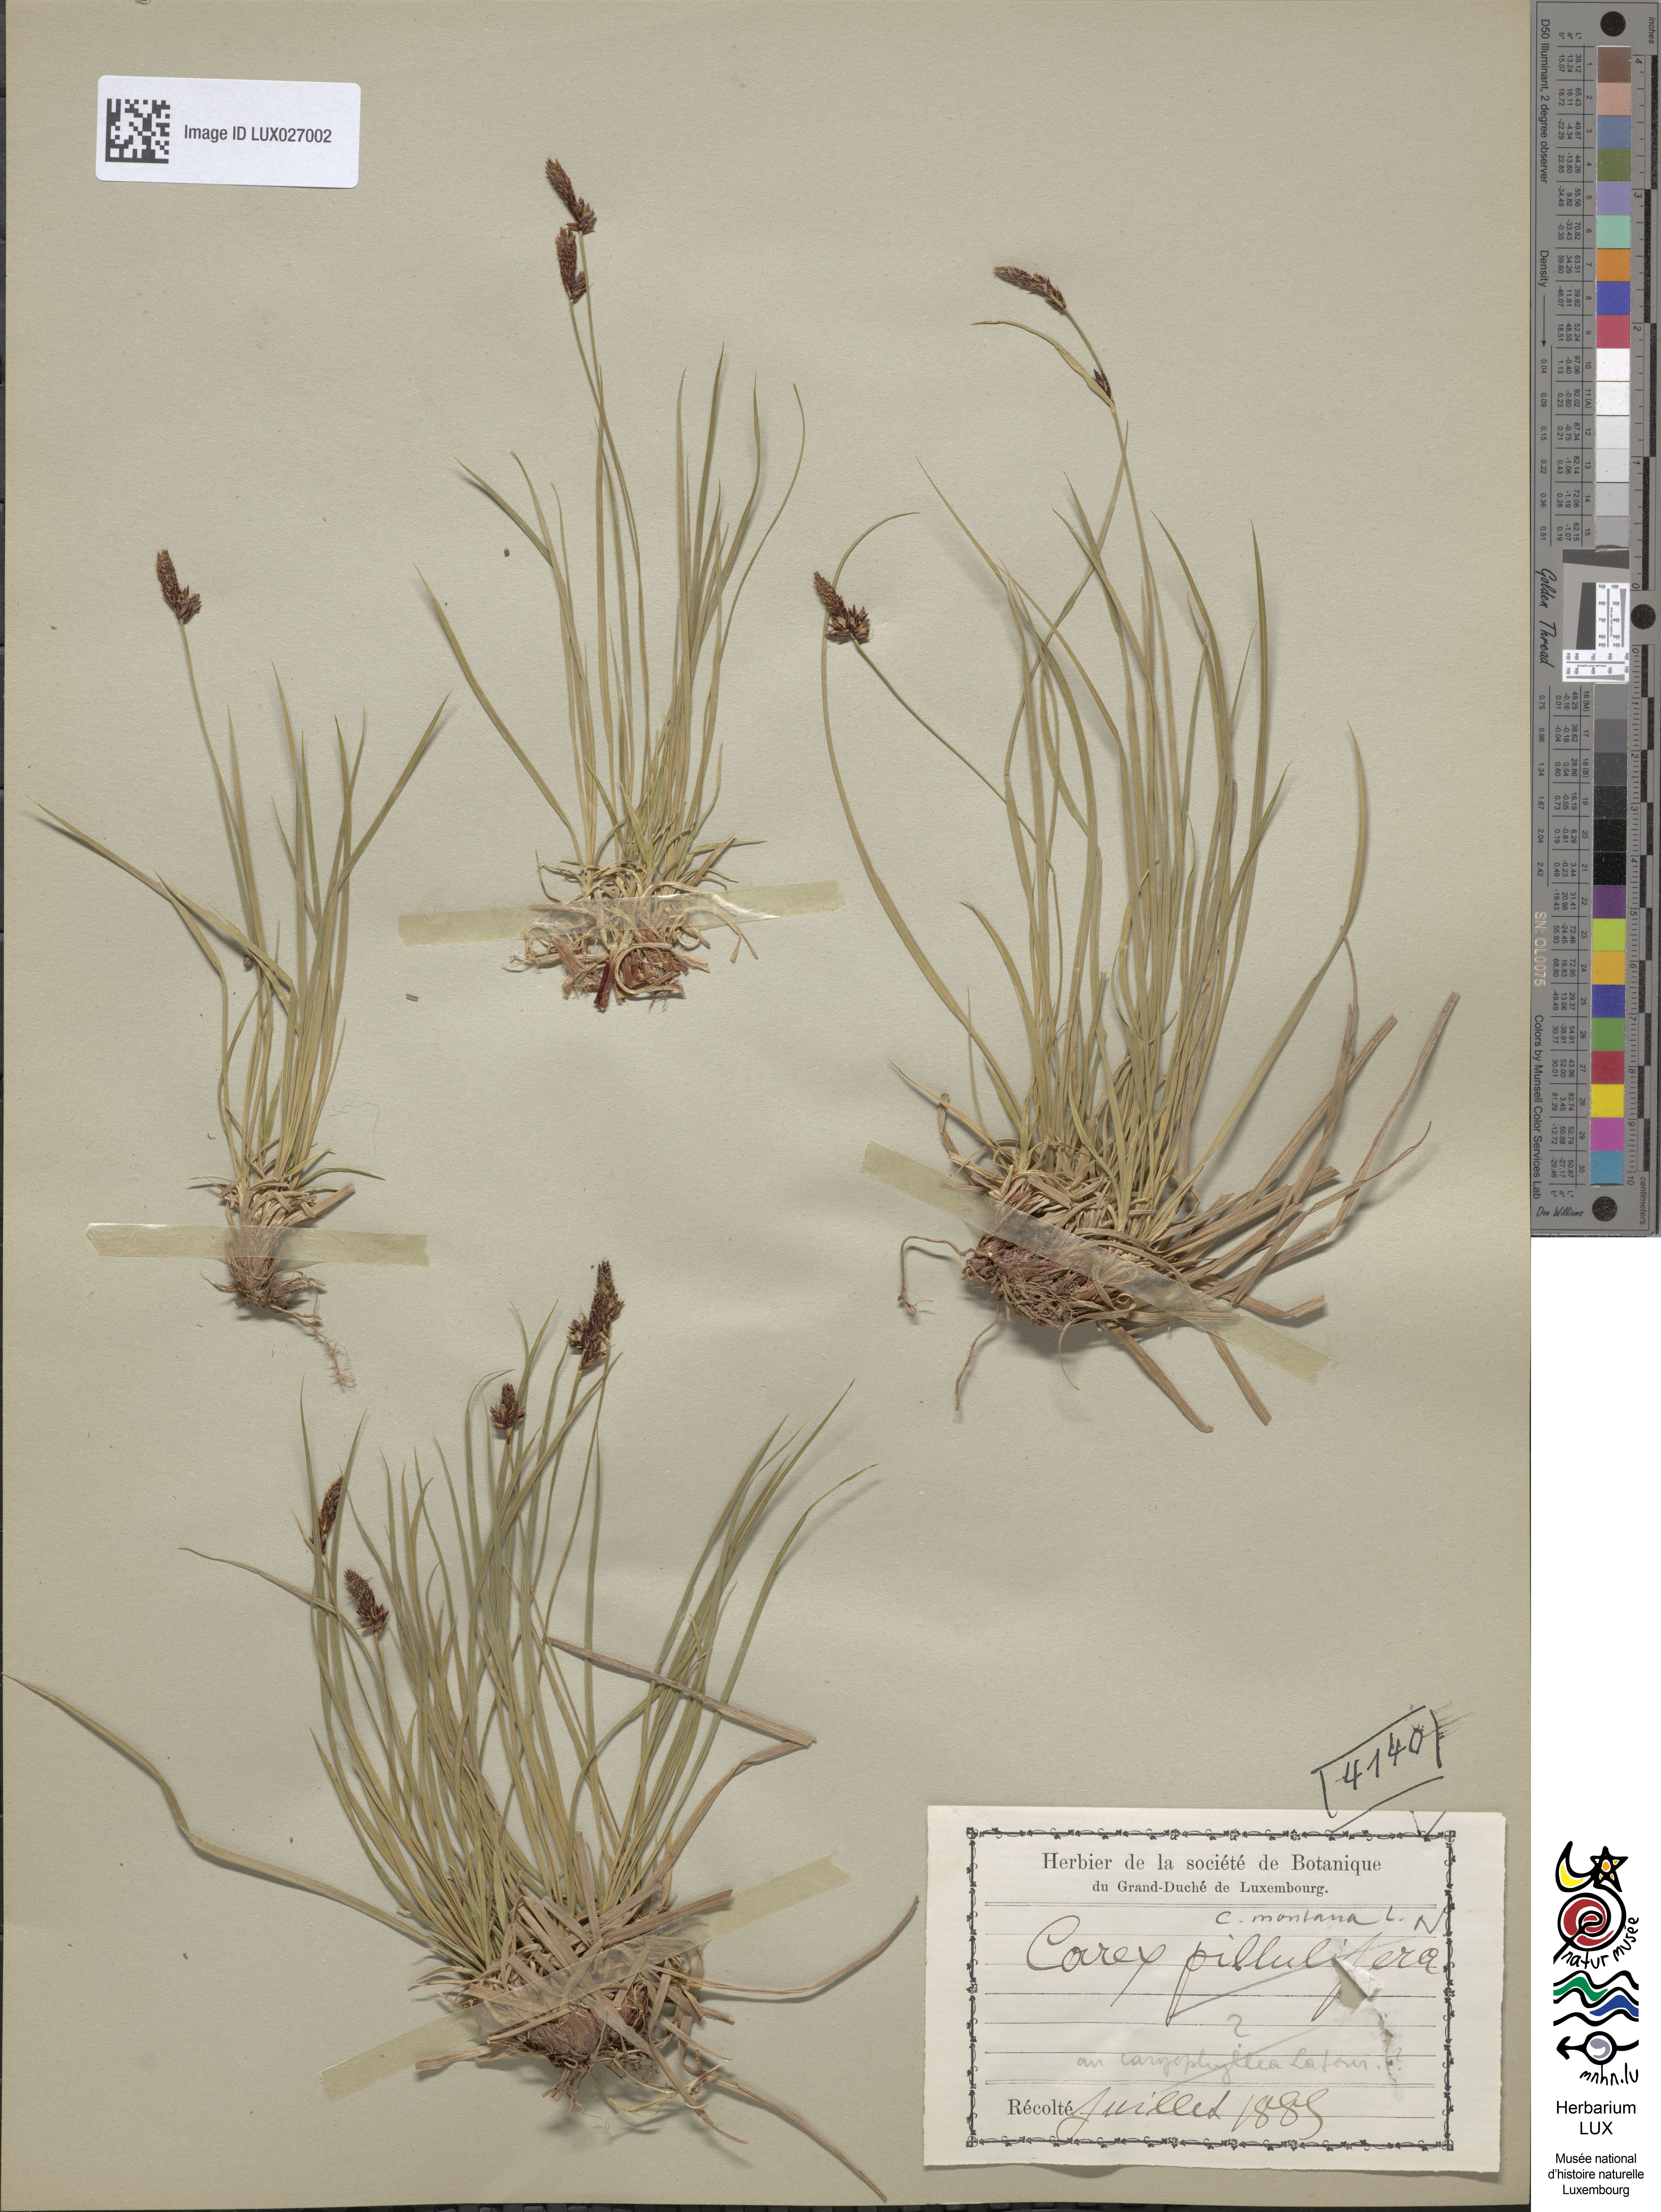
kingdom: Plantae
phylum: Tracheophyta
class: Liliopsida
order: Poales
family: Cyperaceae
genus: Carex
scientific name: Carex montana
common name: Soft-leaved sedge
